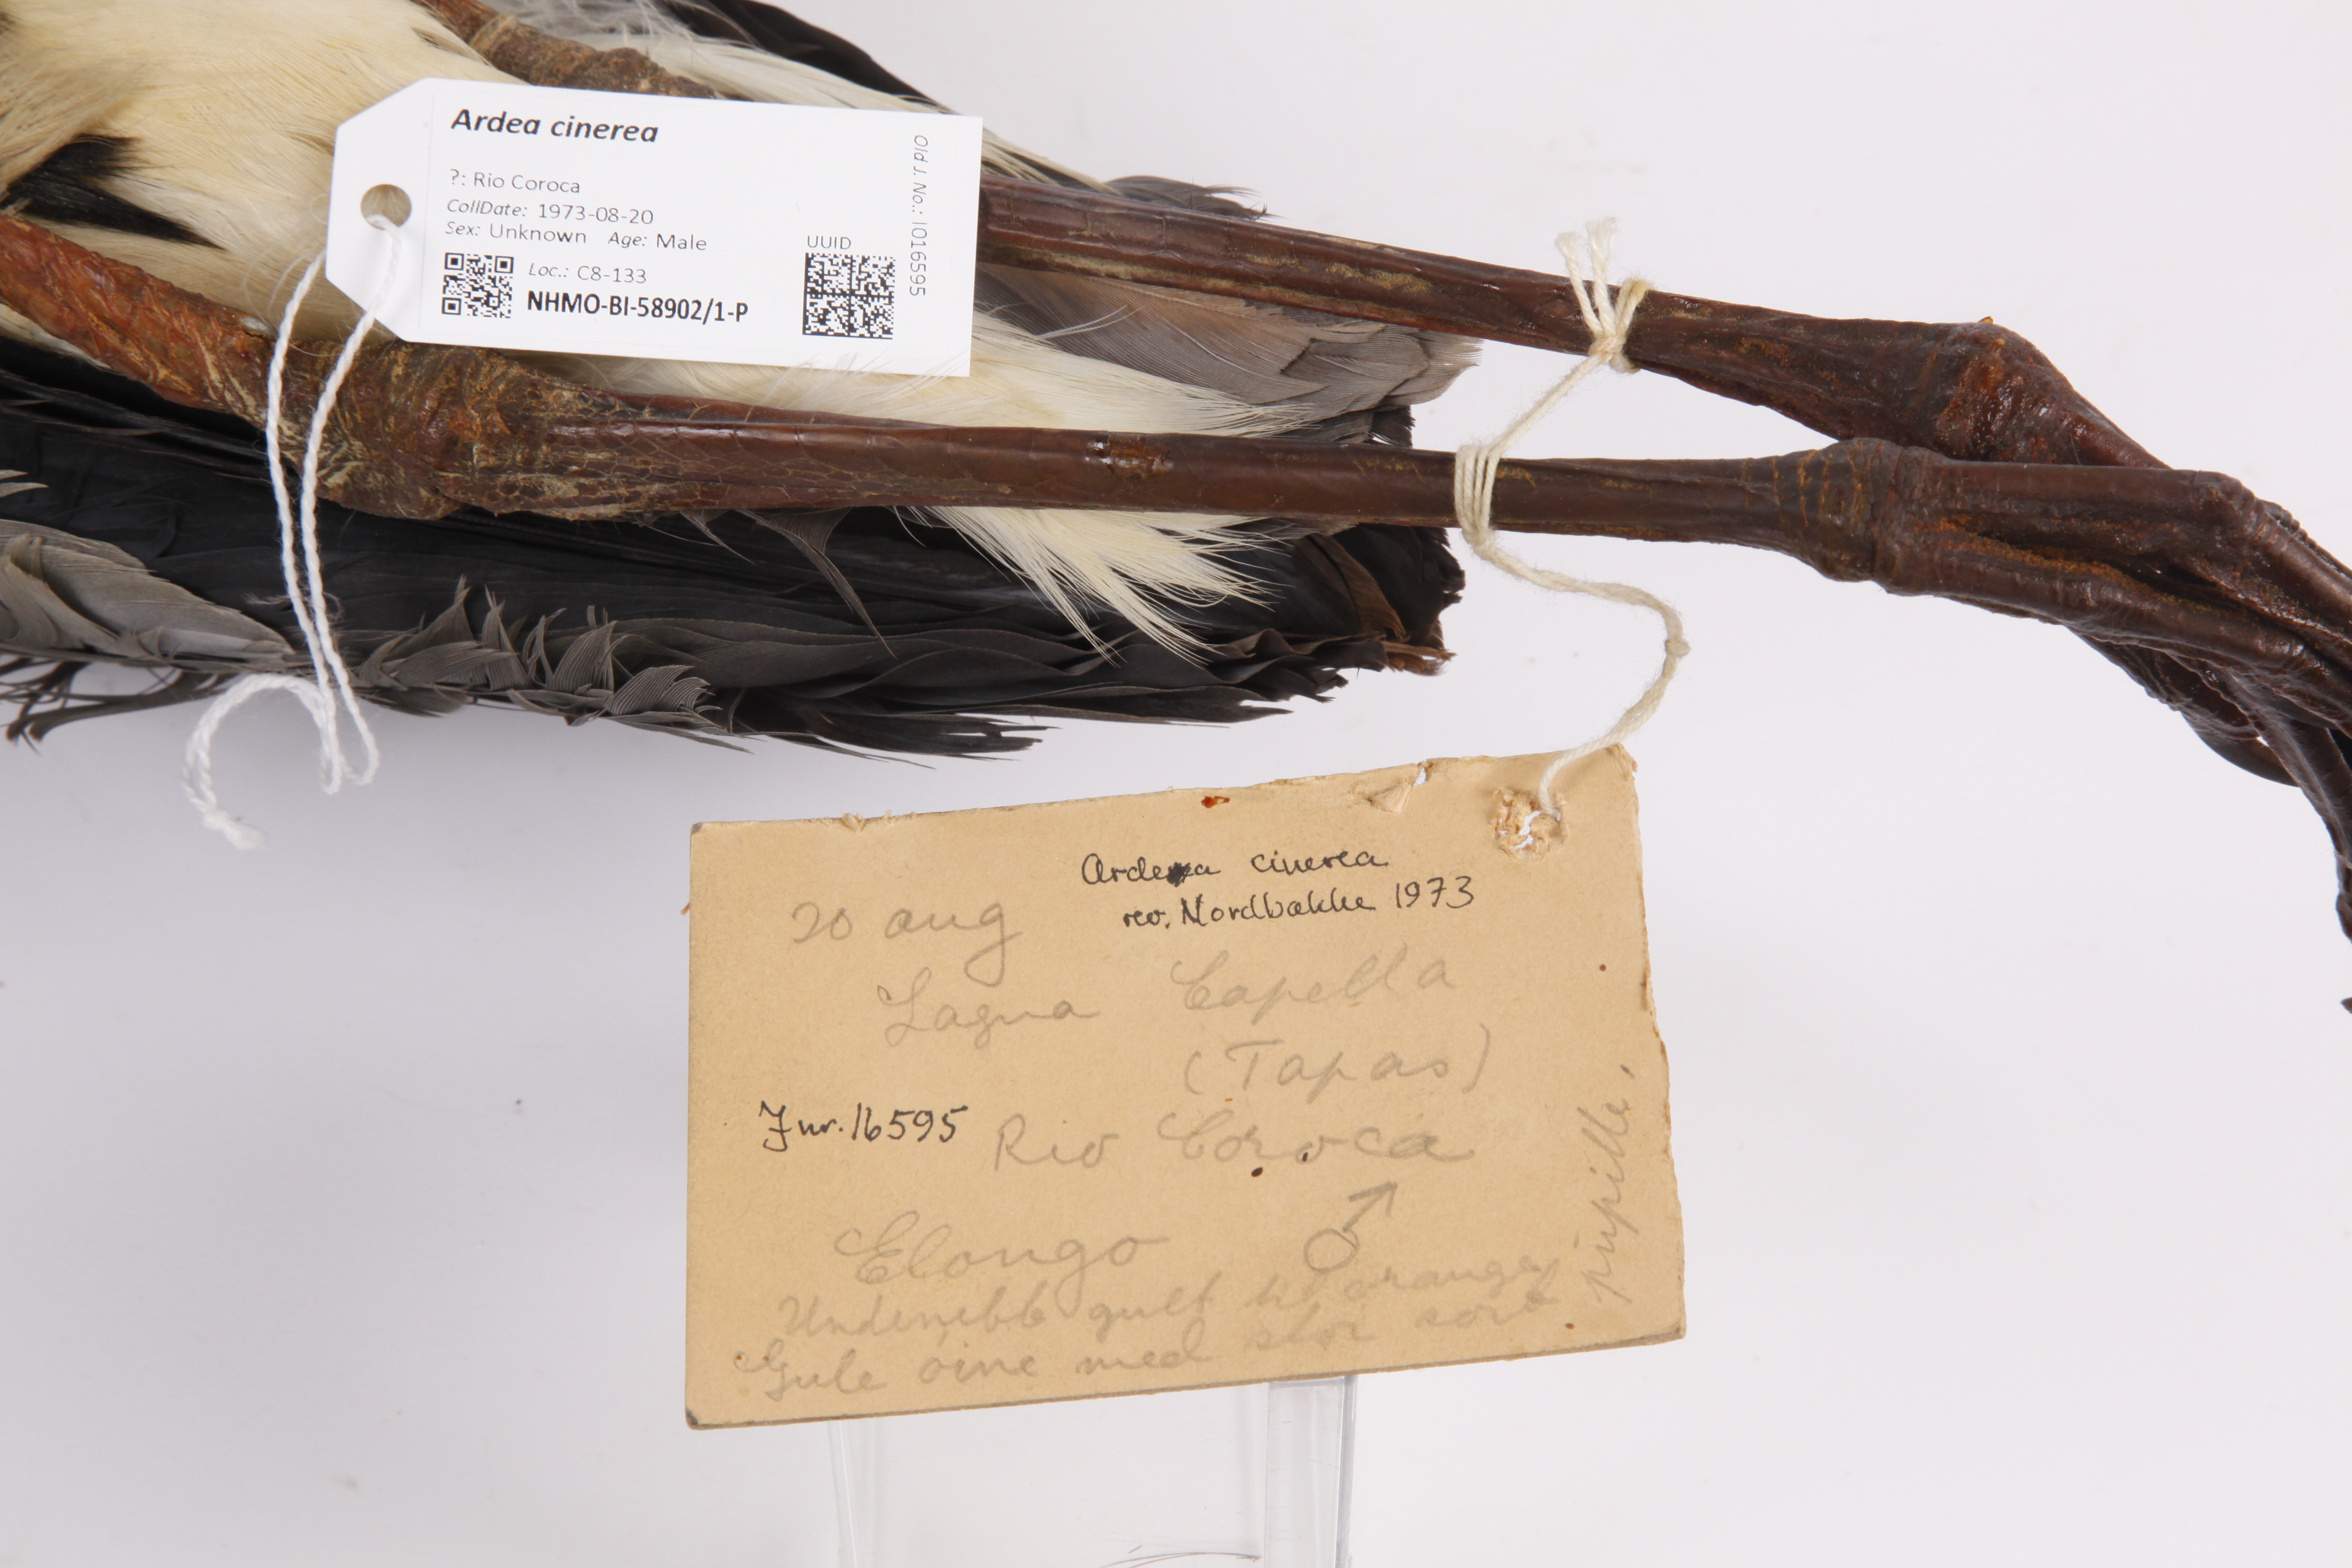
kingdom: Animalia
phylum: Chordata
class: Aves
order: Pelecaniformes
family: Ardeidae
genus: Ardea
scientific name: Ardea cinerea
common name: Grey heron
